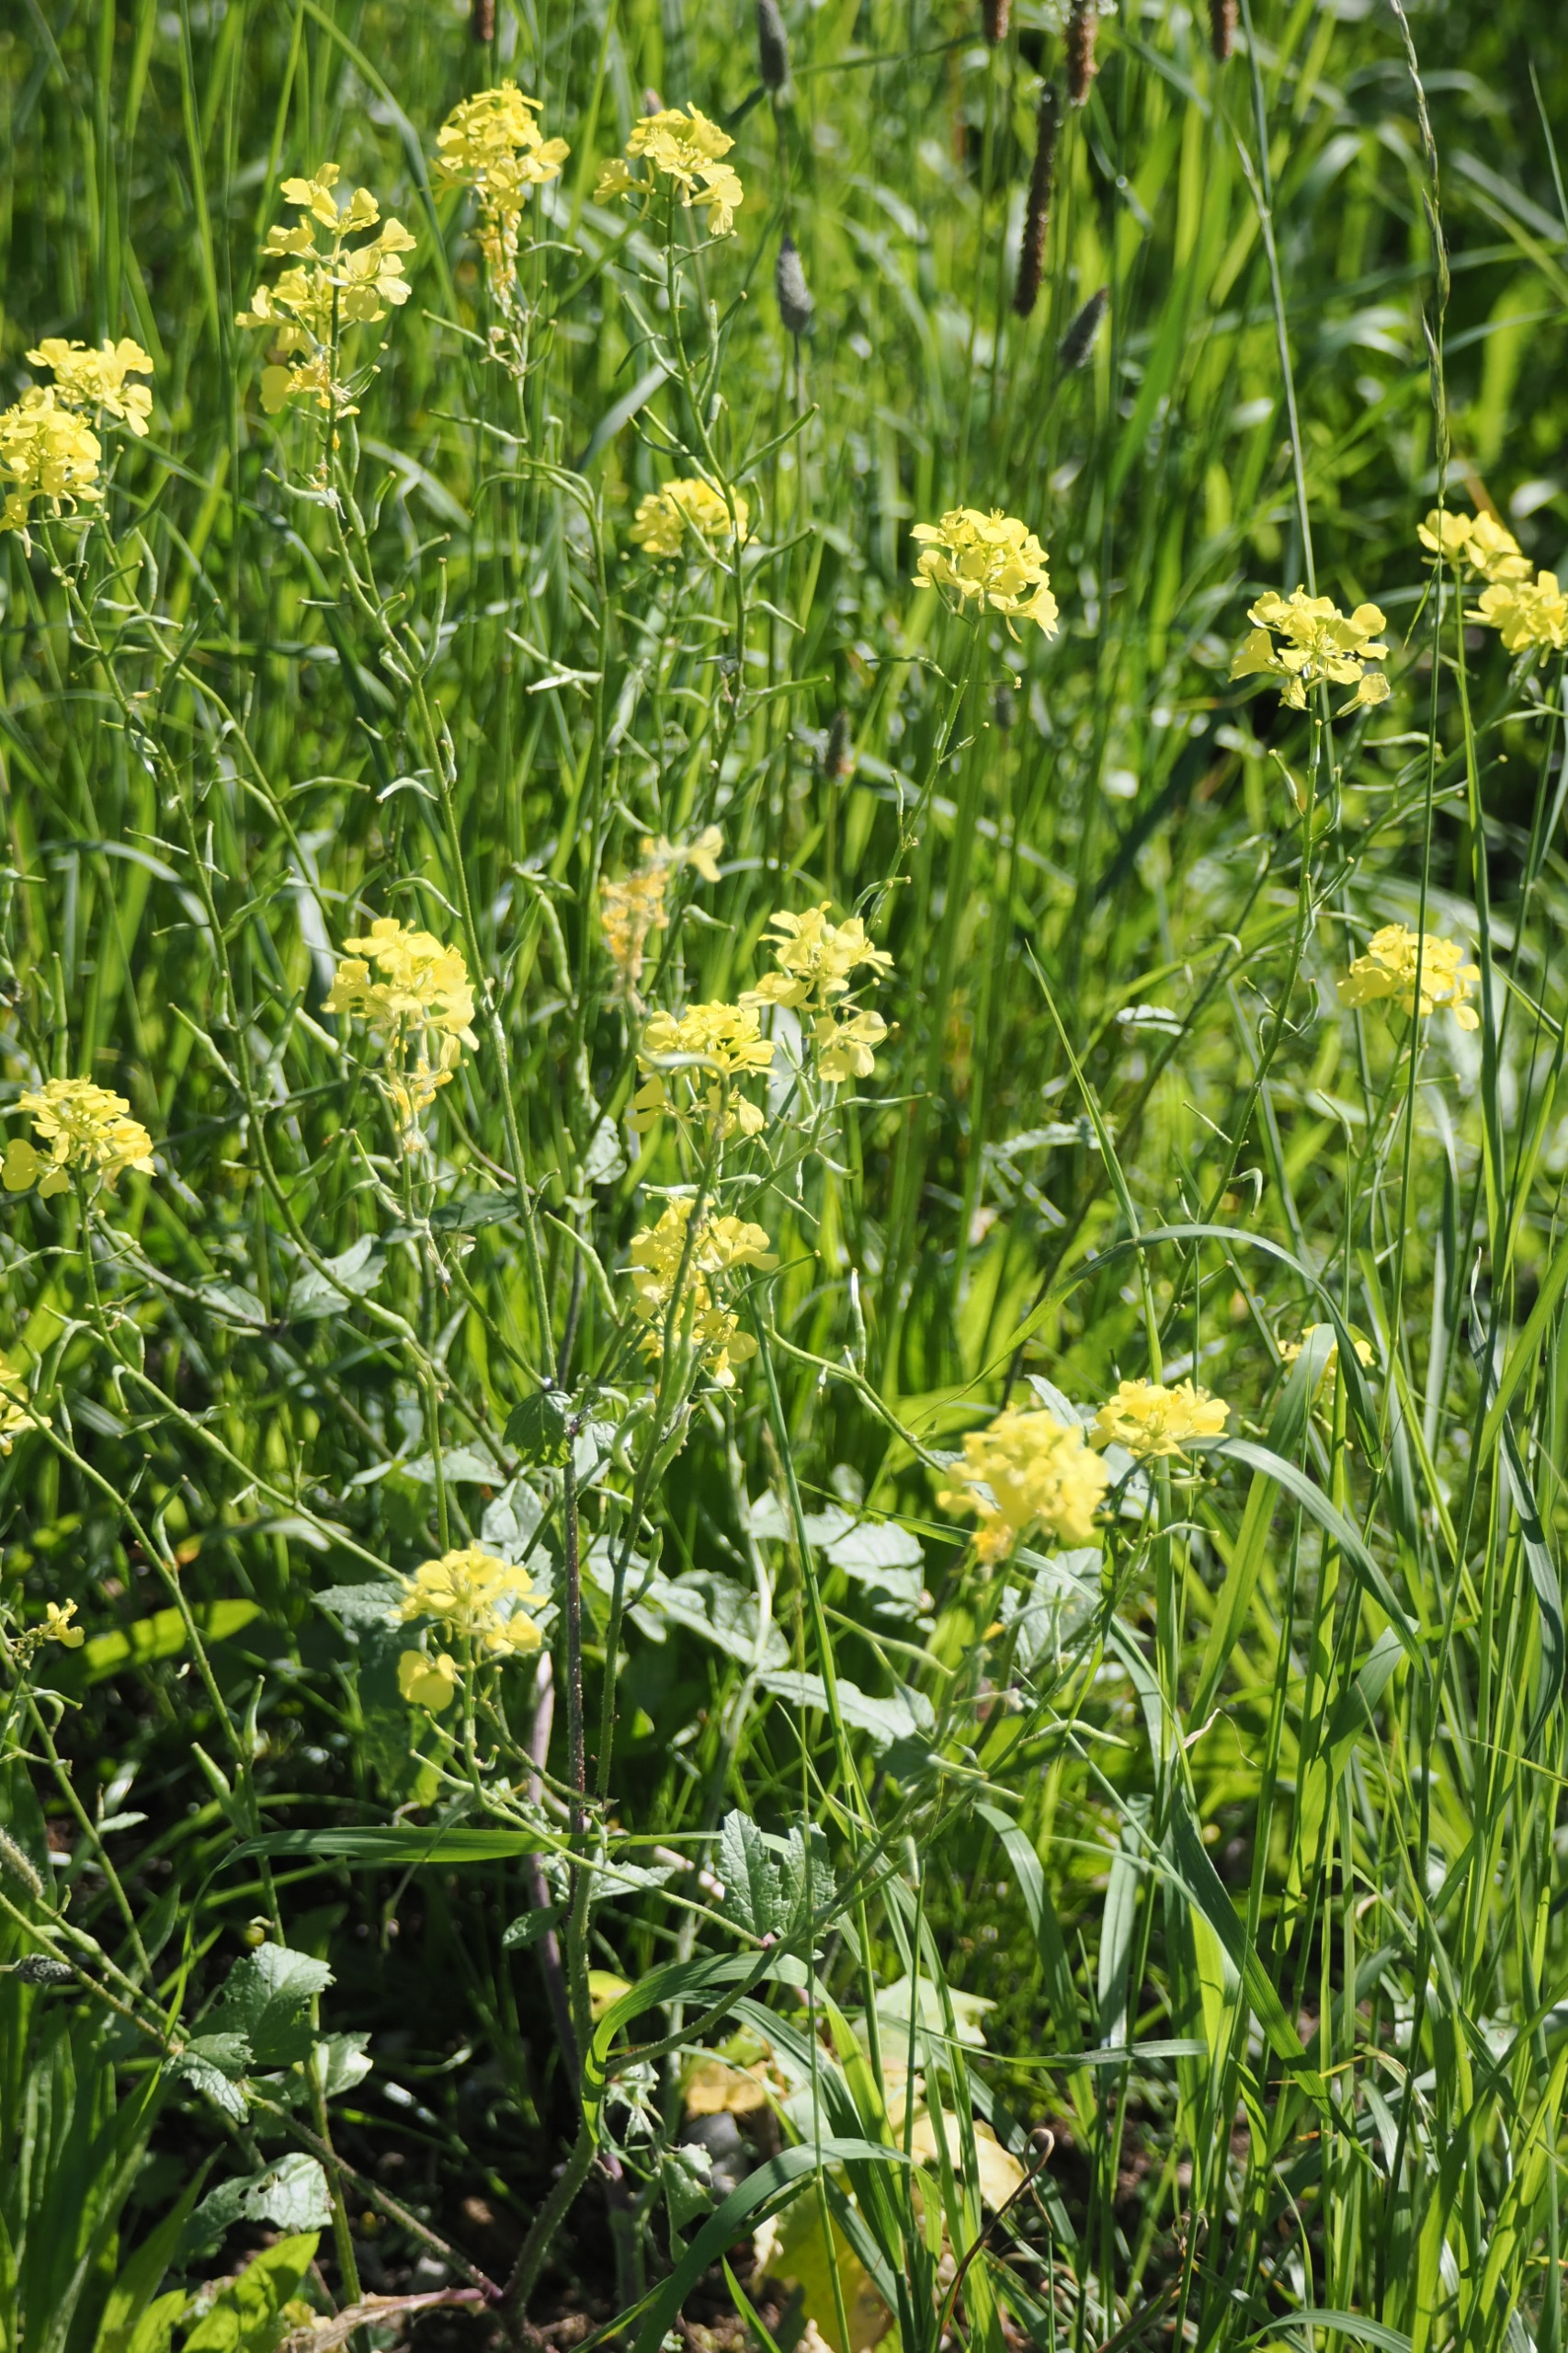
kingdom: Plantae
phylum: Tracheophyta
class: Magnoliopsida
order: Brassicales
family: Brassicaceae
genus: Sinapis
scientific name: Sinapis arvensis
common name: Ager-sennep
